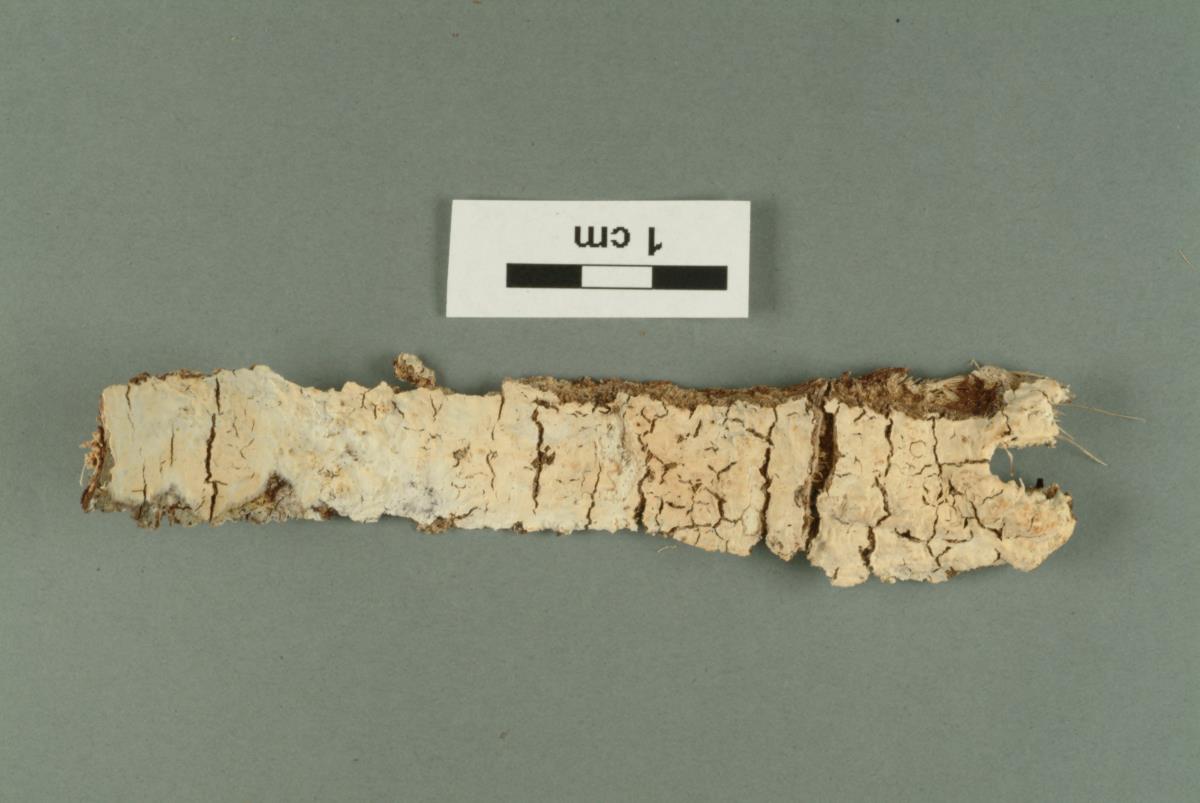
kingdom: Fungi
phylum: Basidiomycota
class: Agaricomycetes
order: Polyporales
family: Hyphodermataceae
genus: Hyphoderma
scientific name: Hyphoderma litschaueri
